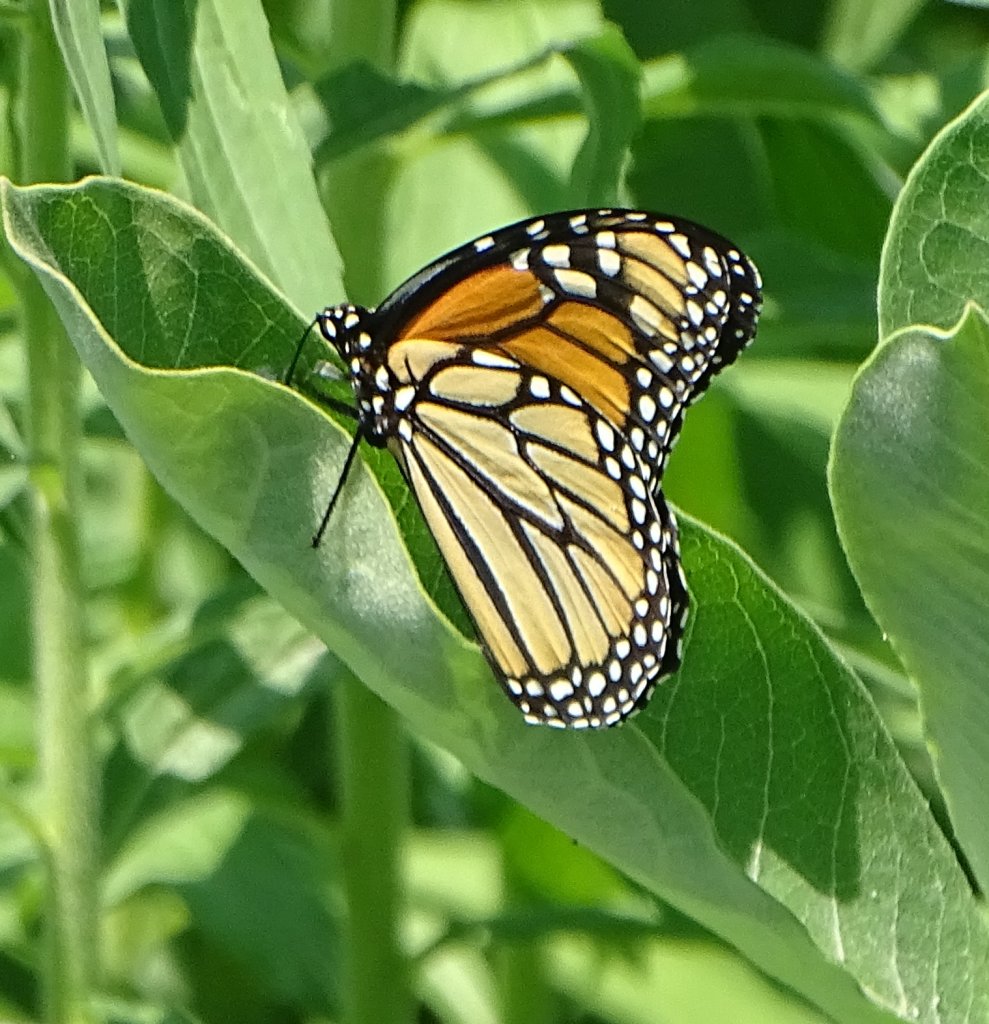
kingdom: Animalia
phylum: Arthropoda
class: Insecta
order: Lepidoptera
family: Nymphalidae
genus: Danaus
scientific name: Danaus plexippus
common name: Monarch
